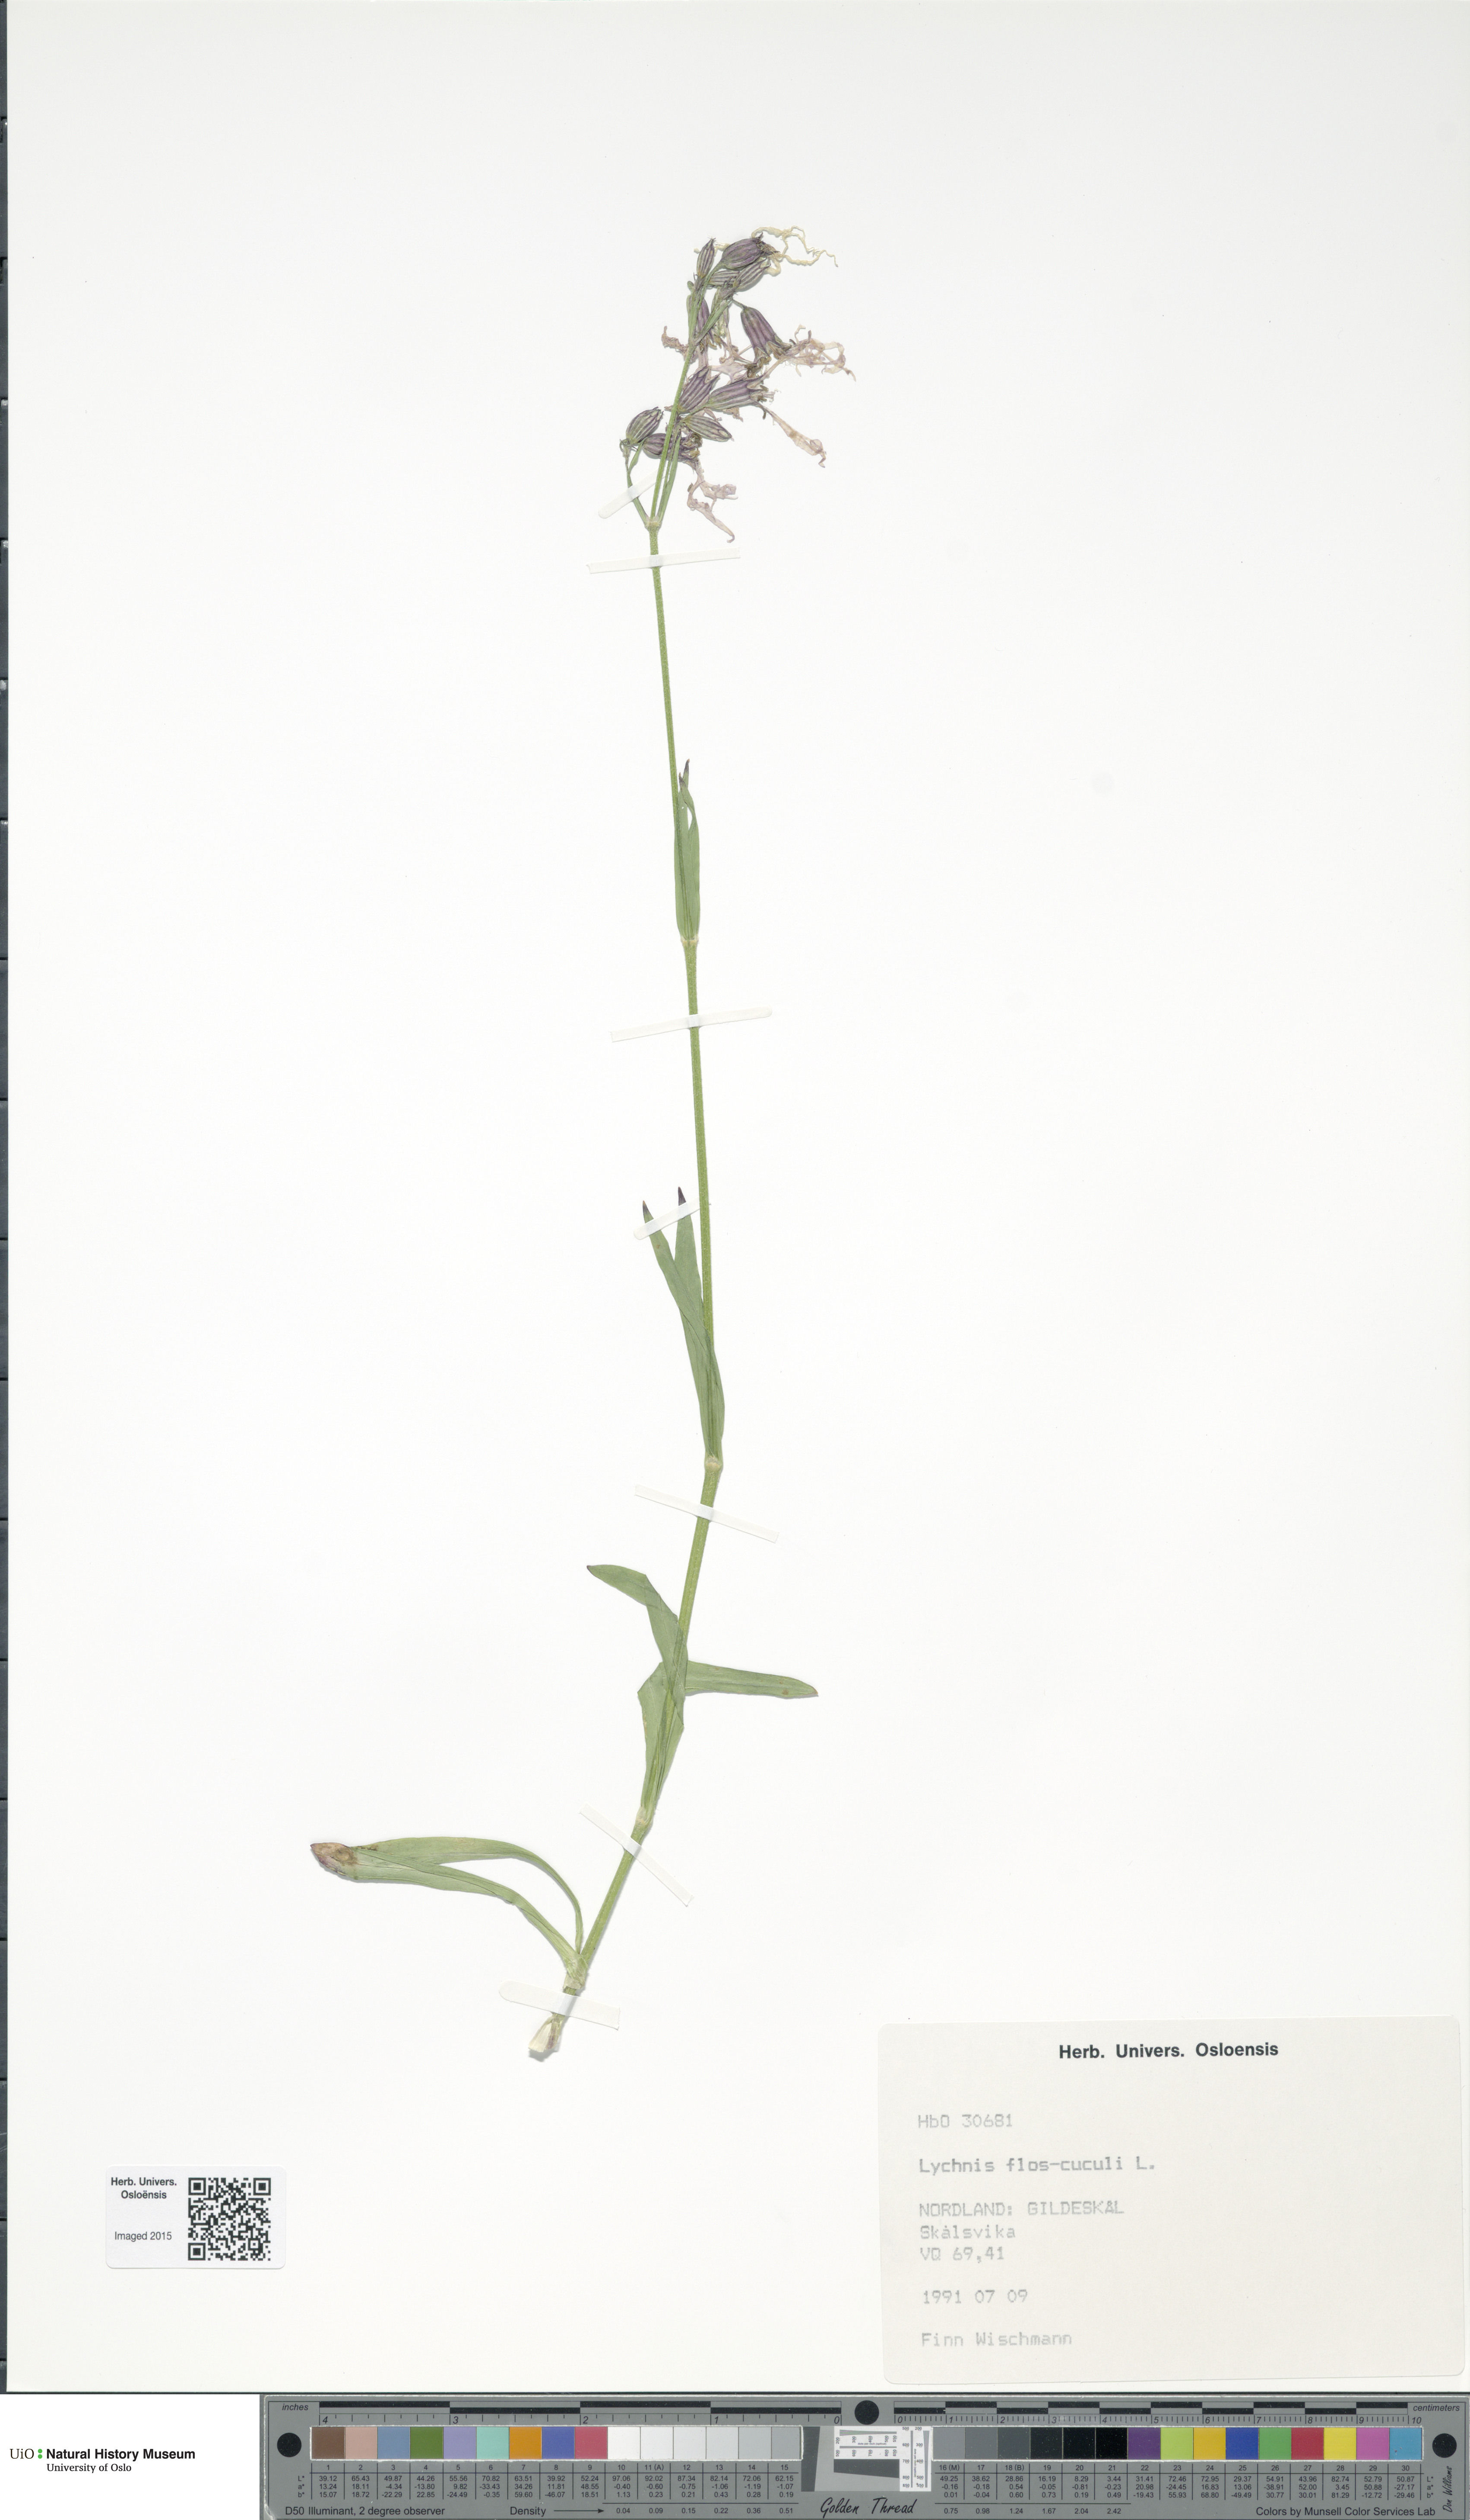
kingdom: Plantae
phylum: Tracheophyta
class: Magnoliopsida
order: Caryophyllales
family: Caryophyllaceae
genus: Silene
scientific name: Silene flos-cuculi
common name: Ragged-robin
